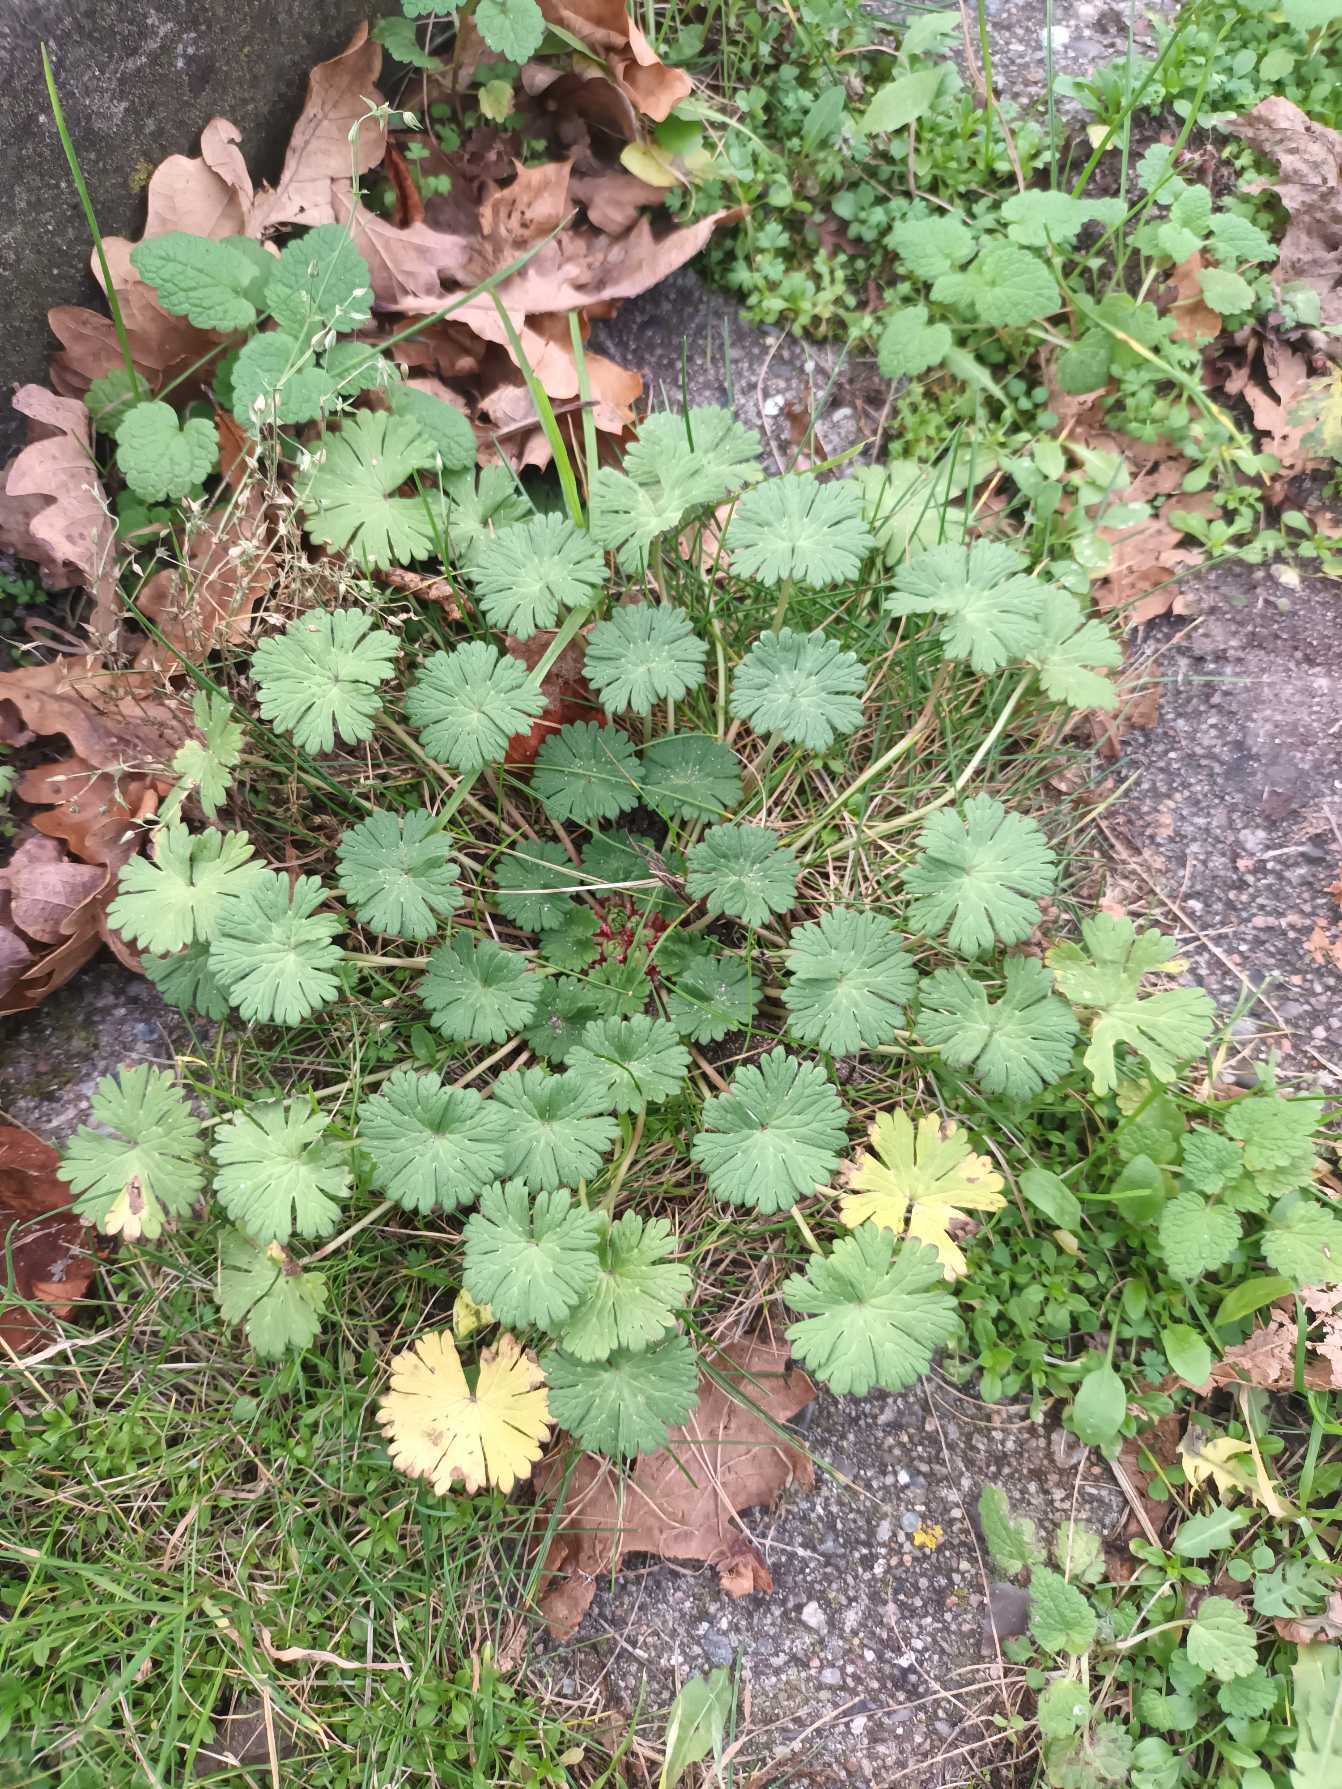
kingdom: Plantae
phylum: Tracheophyta
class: Magnoliopsida
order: Geraniales
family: Geraniaceae
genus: Geranium
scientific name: Geranium pusillum
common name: Liden storkenæb
